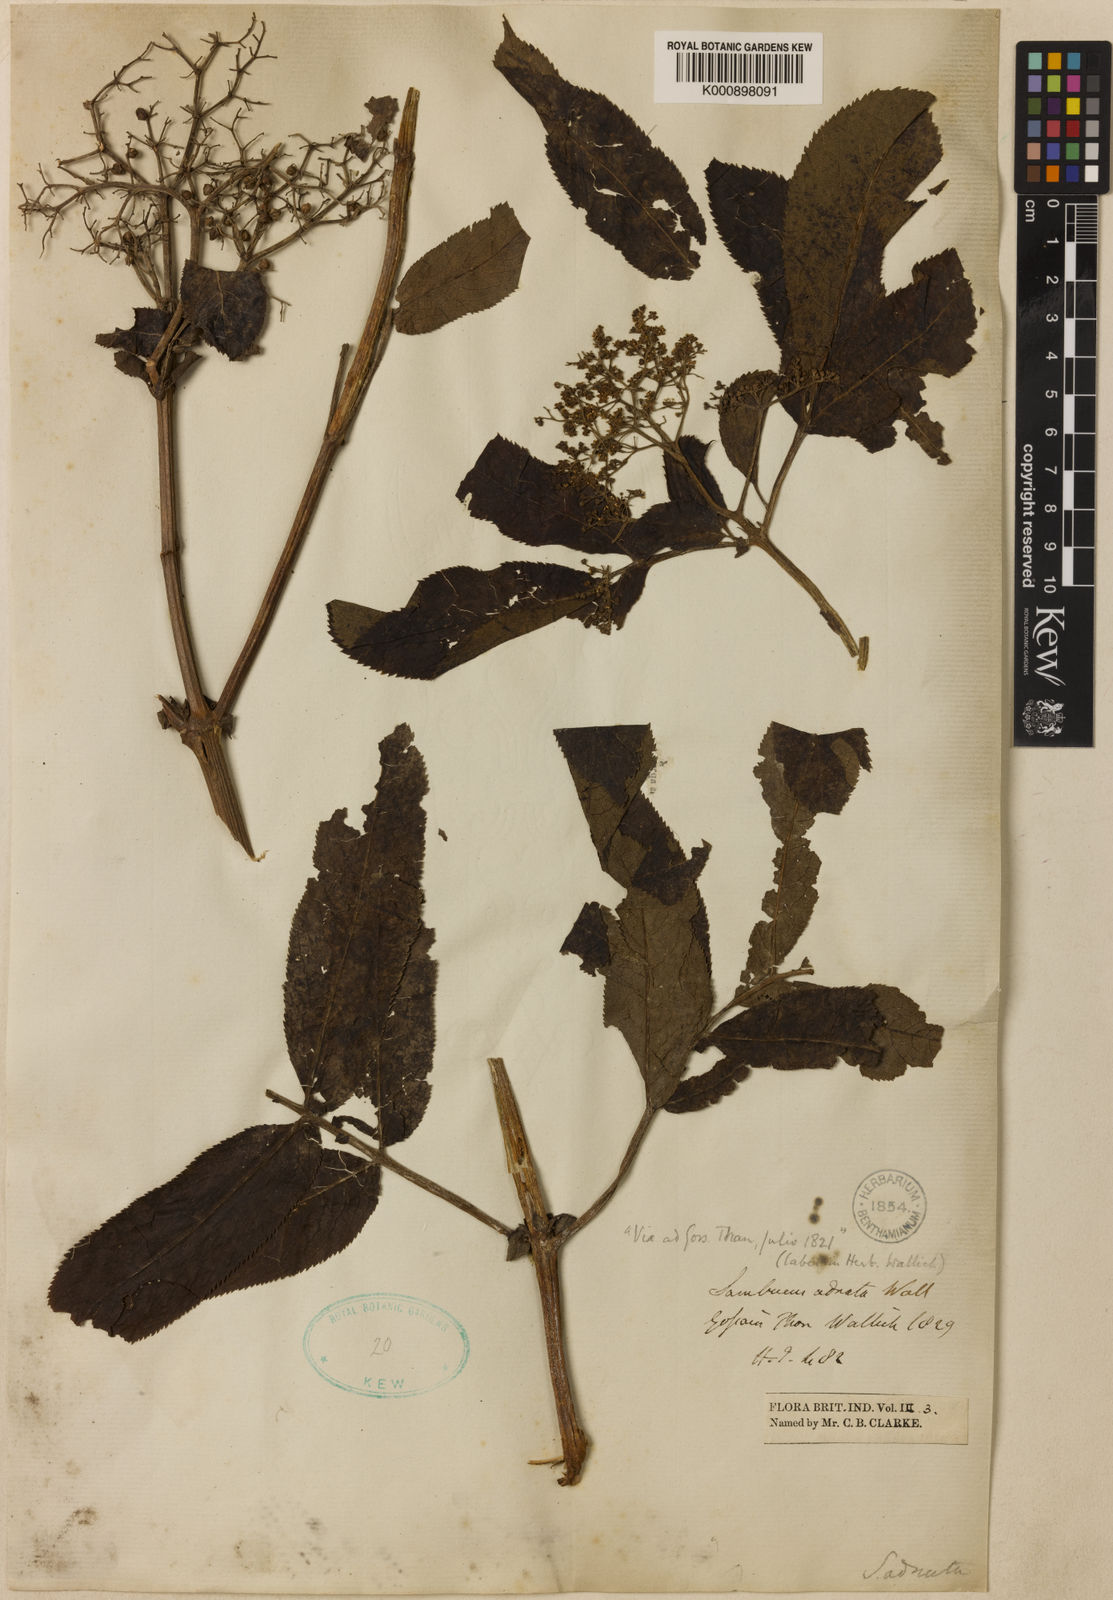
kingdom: Plantae
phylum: Tracheophyta
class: Magnoliopsida
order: Dipsacales
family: Viburnaceae
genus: Sambucus
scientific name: Sambucus adnata
